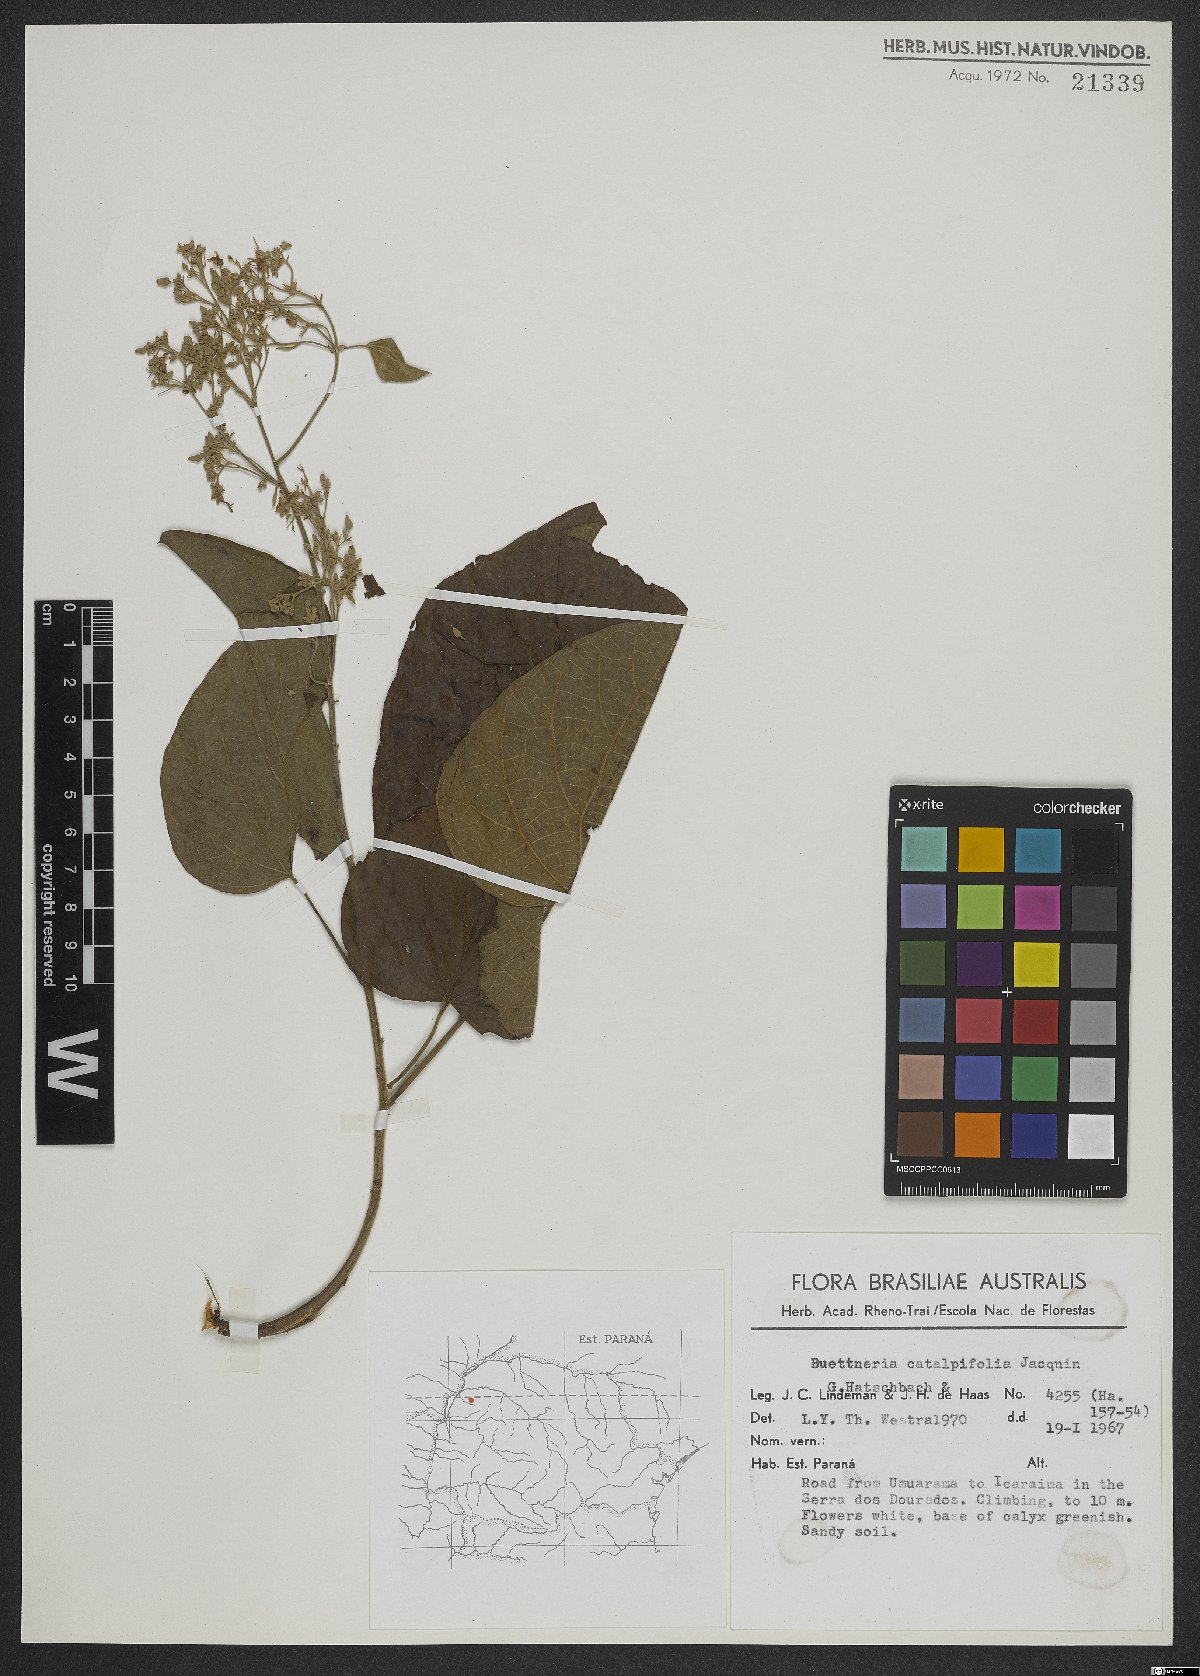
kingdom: Plantae
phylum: Tracheophyta
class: Magnoliopsida
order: Malvales
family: Malvaceae
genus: Byttneria
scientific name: Byttneria catalpifolia
